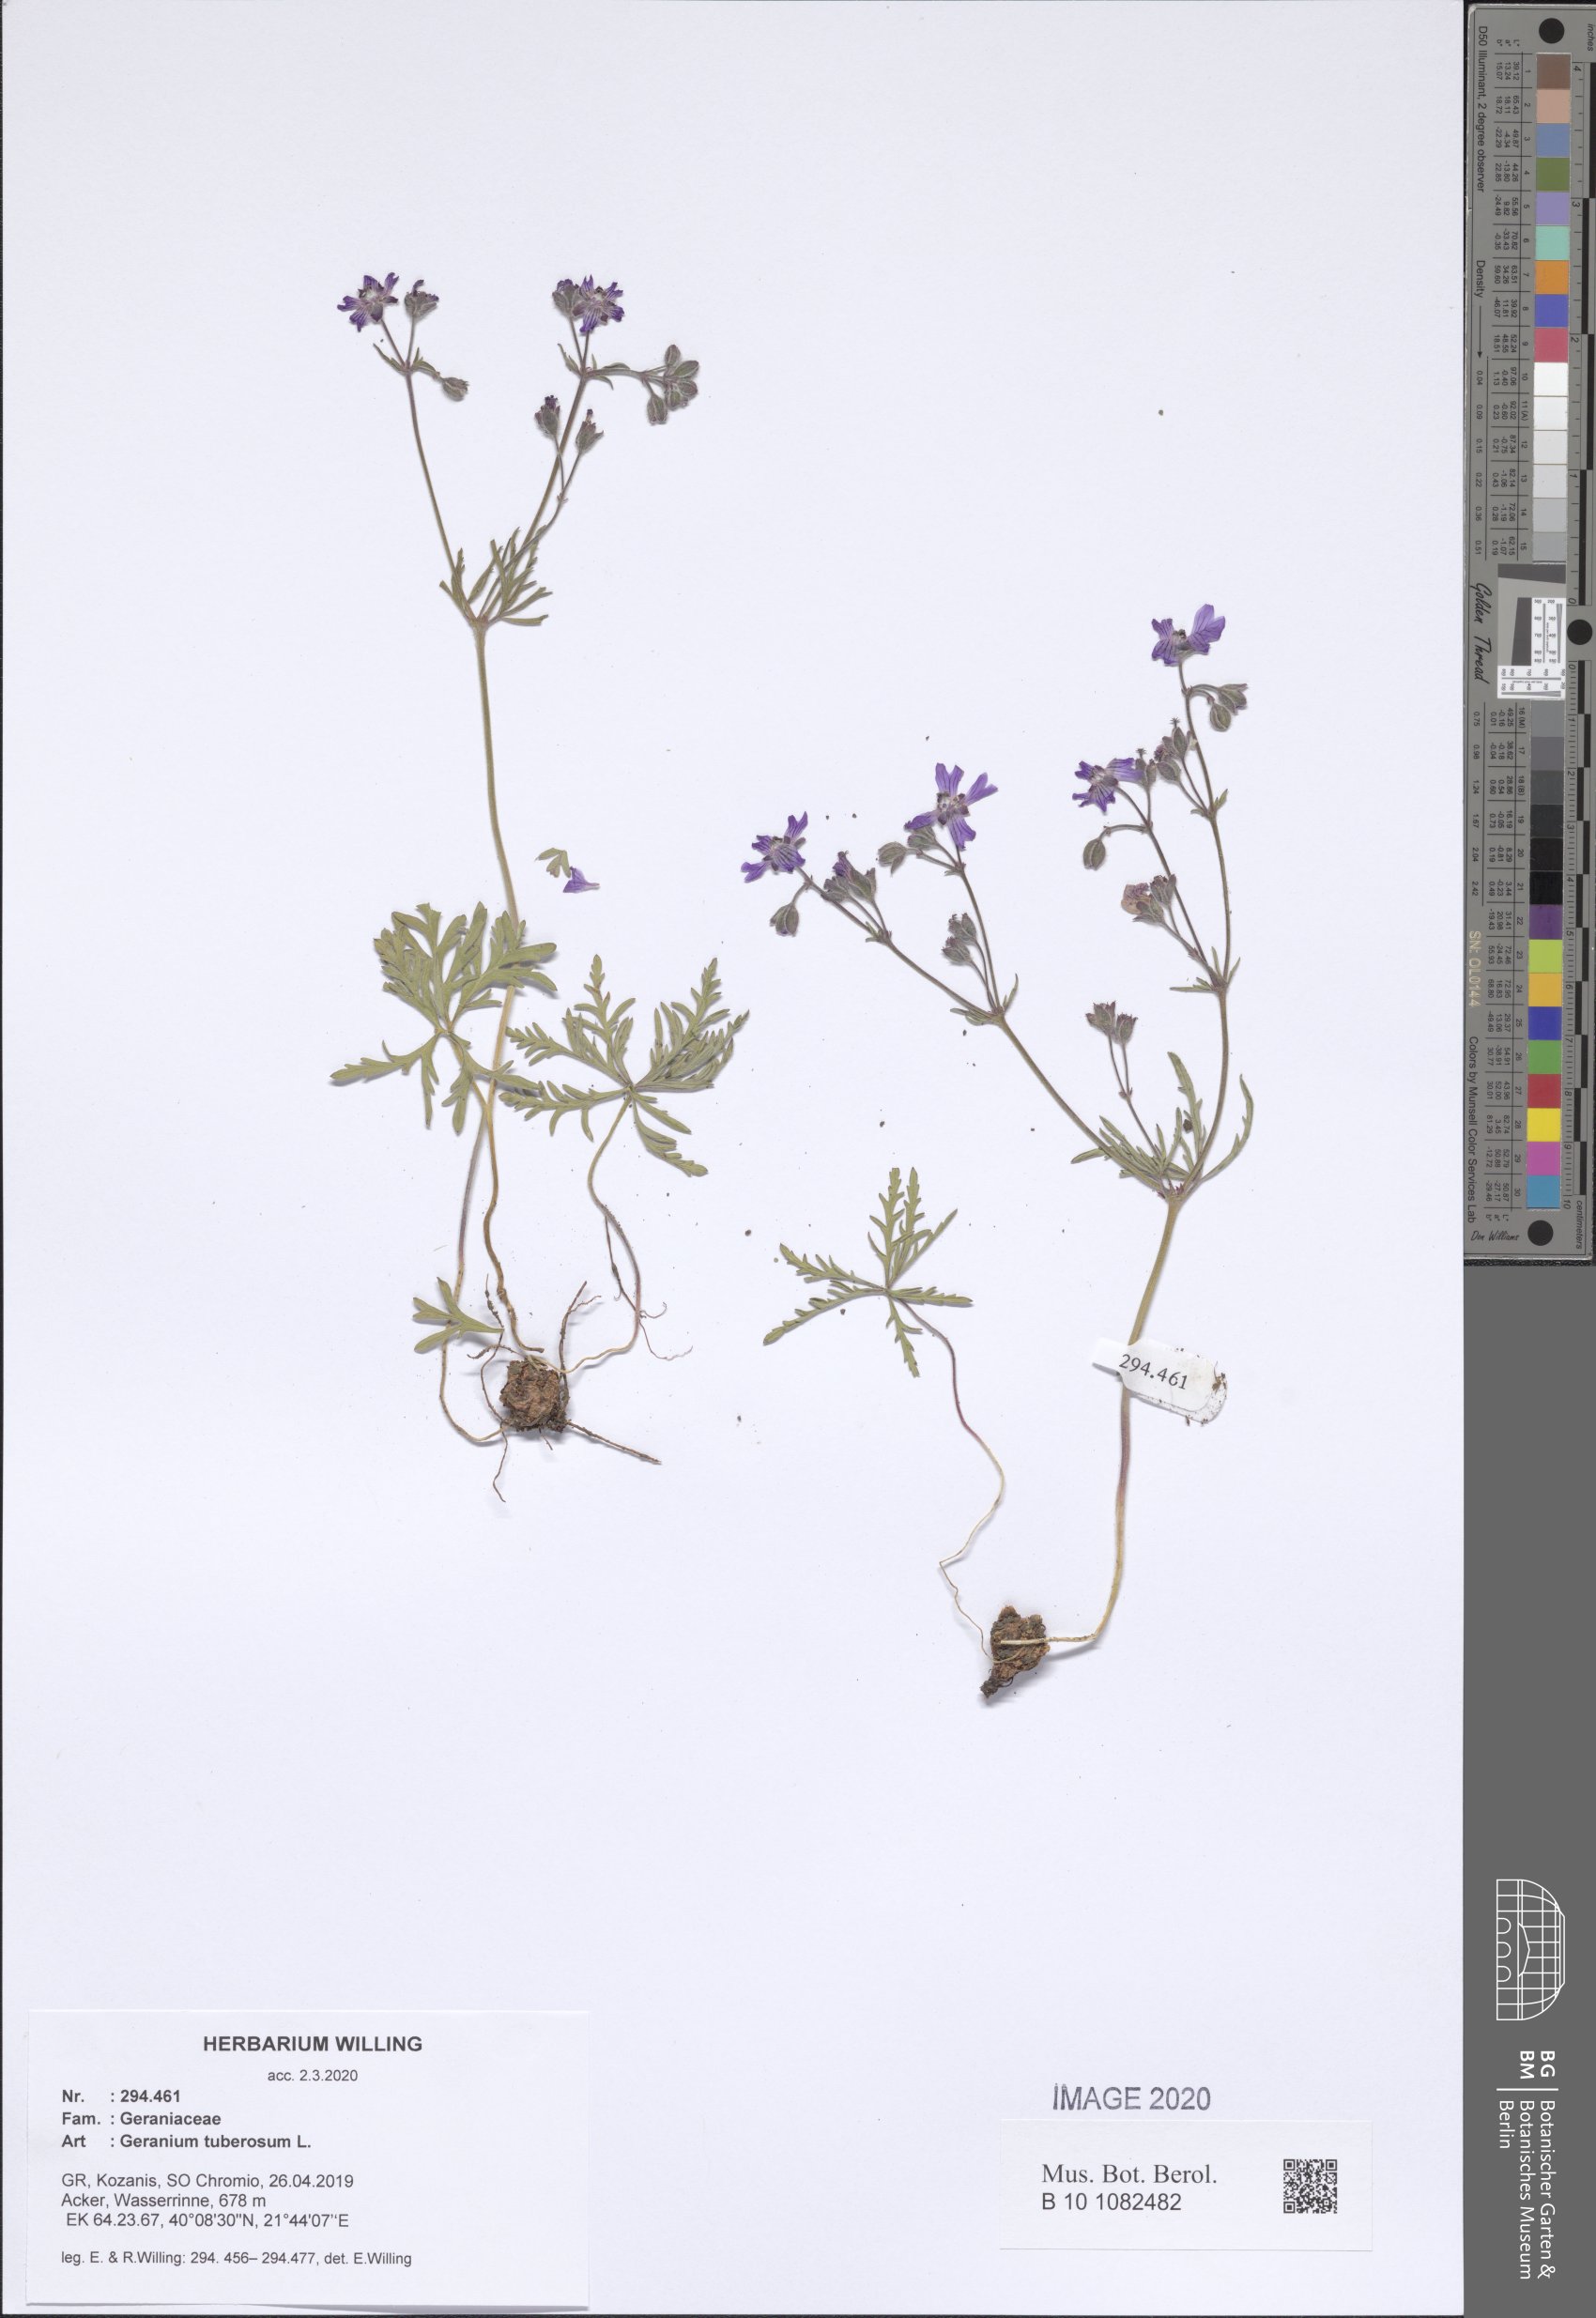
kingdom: Plantae
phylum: Tracheophyta
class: Magnoliopsida
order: Geraniales
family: Geraniaceae
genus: Geranium
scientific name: Geranium tuberosum
